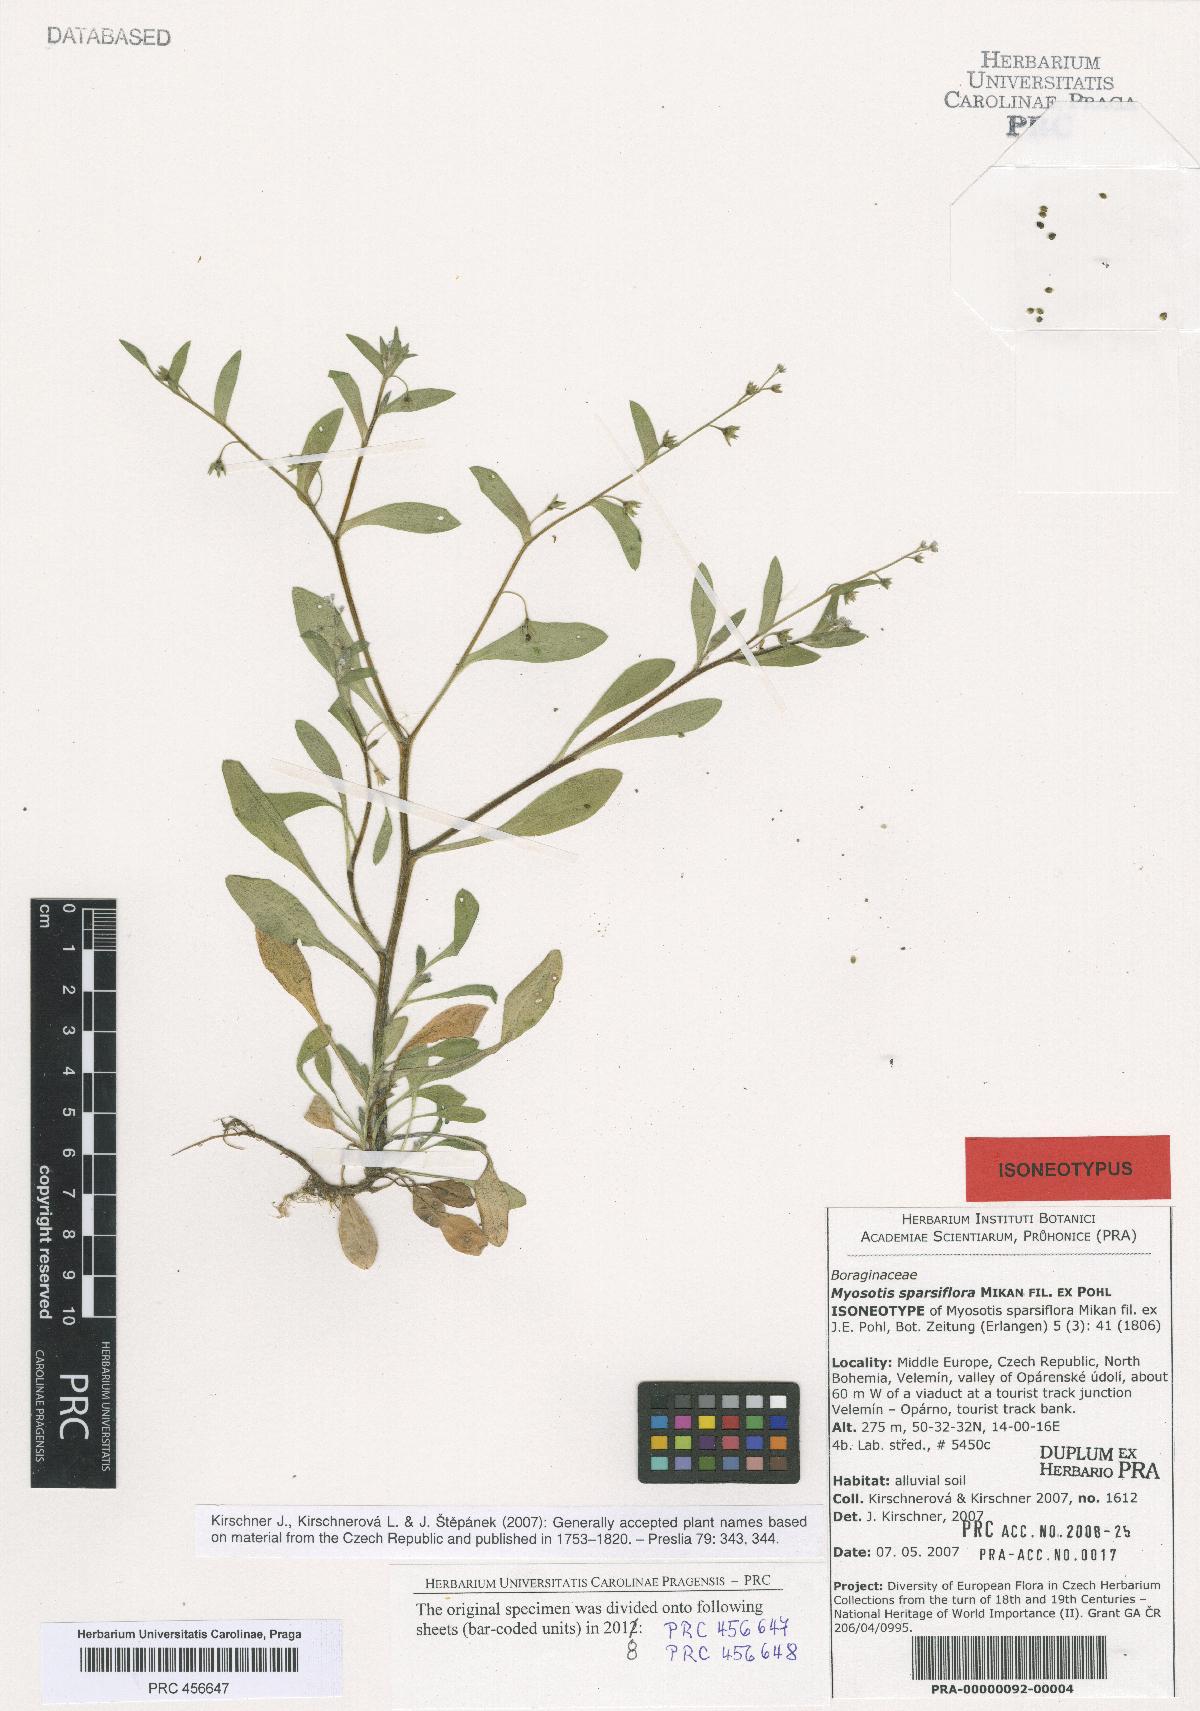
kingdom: Plantae
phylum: Tracheophyta
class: Magnoliopsida
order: Boraginales
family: Boraginaceae
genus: Myosotis
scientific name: Myosotis sparsiflora
